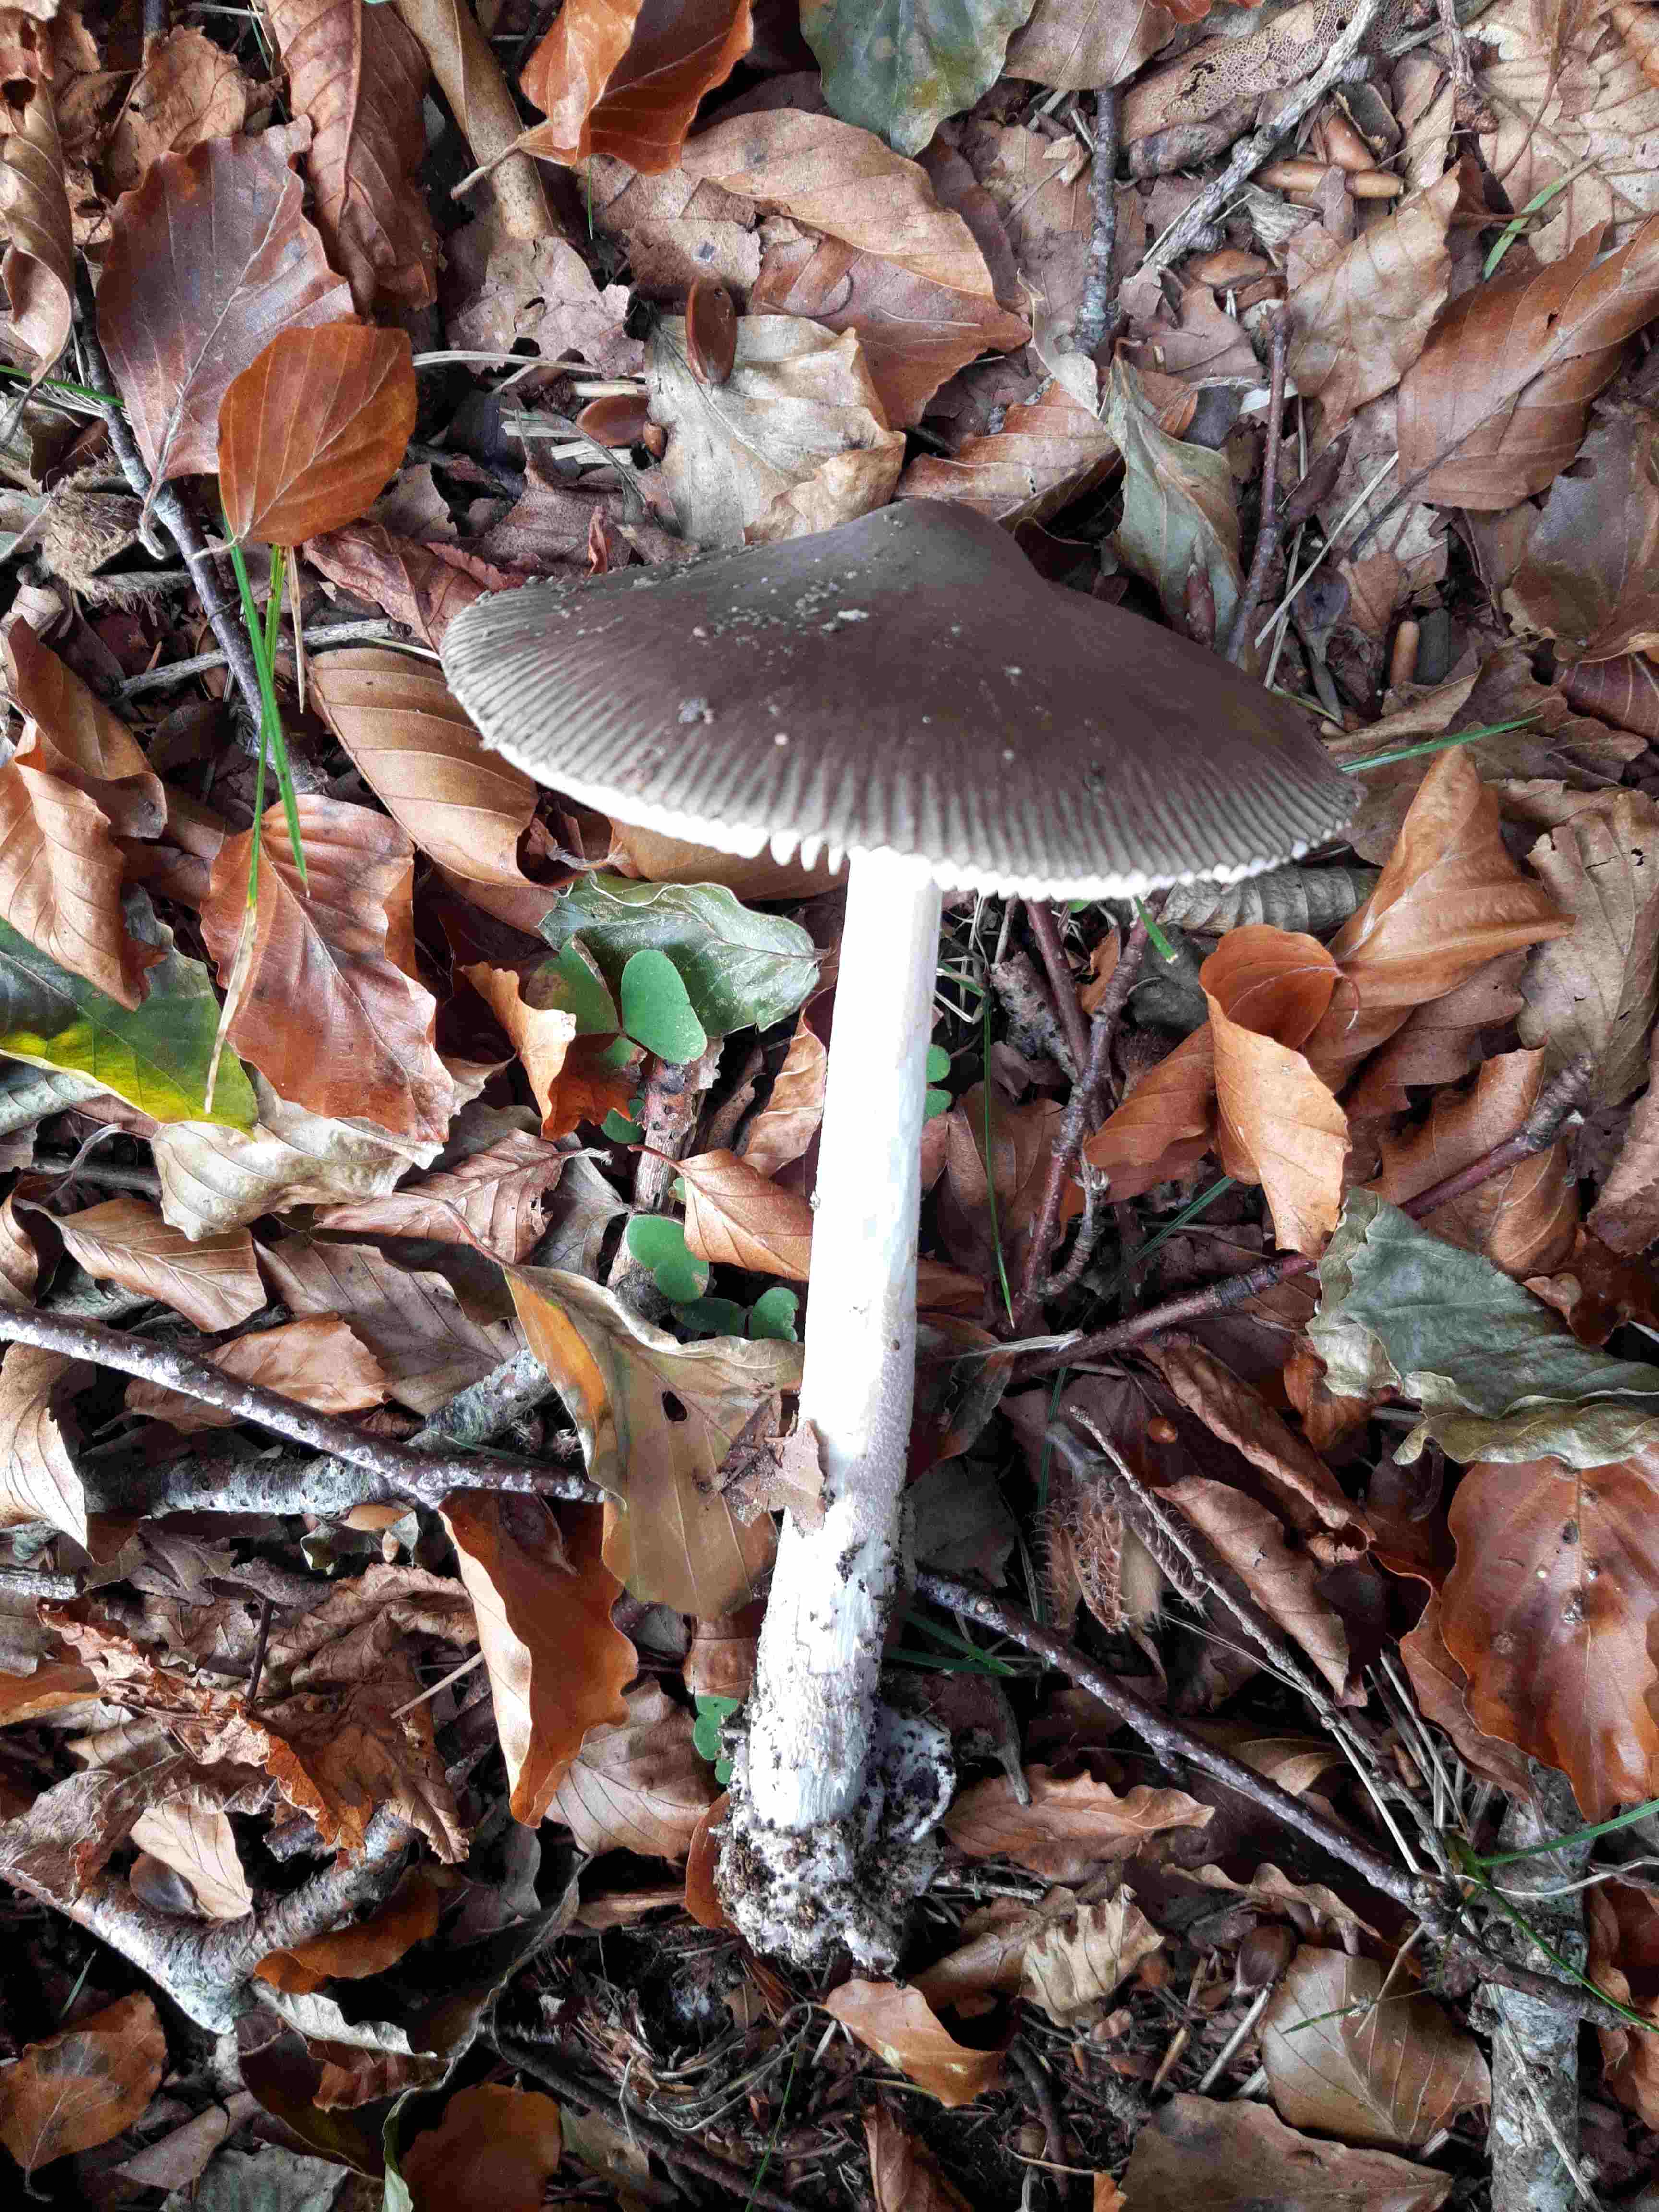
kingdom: Fungi
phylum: Basidiomycota
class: Agaricomycetes
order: Agaricales
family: Amanitaceae
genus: Amanita
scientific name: Amanita submembranacea
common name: gråspættet kam-fluesvamp
